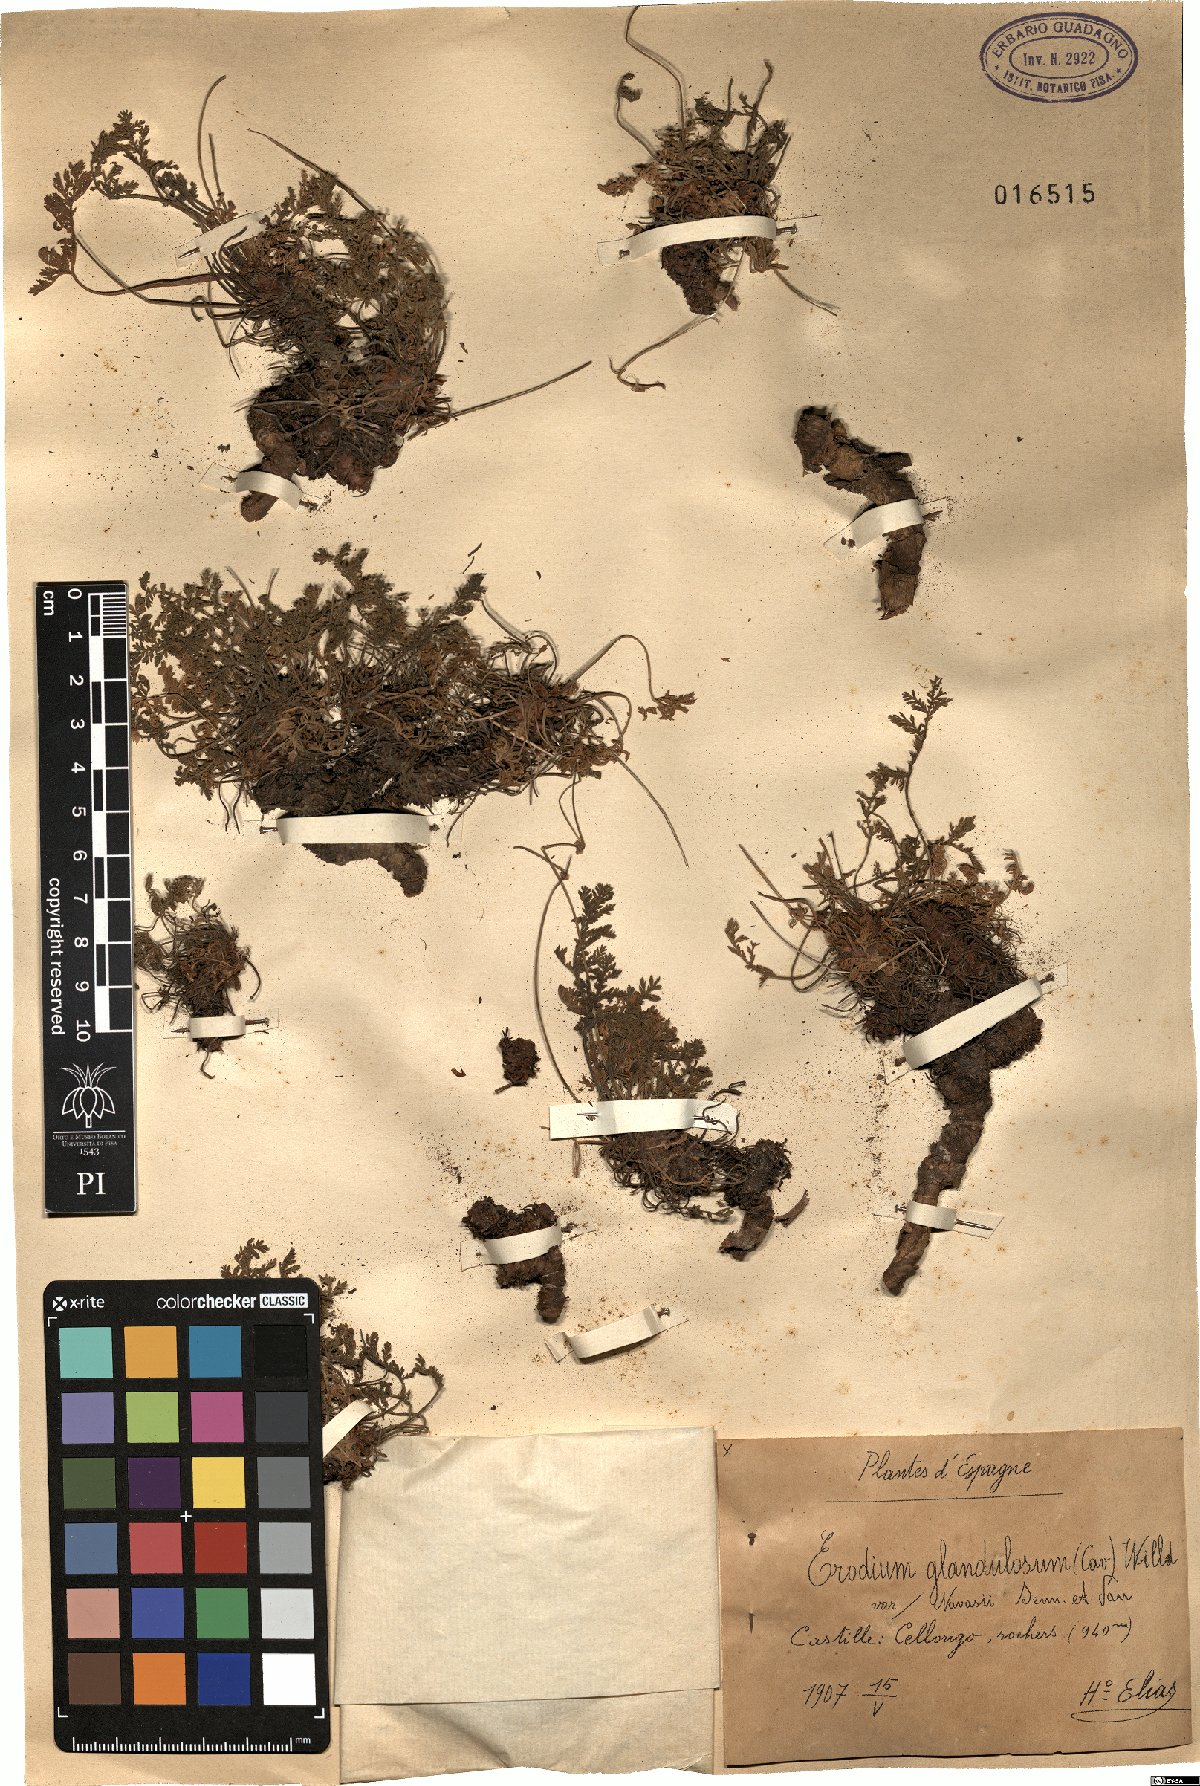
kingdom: Plantae
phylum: Tracheophyta
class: Magnoliopsida
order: Geraniales
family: Geraniaceae
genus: Erodium
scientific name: Erodium glandulosum
